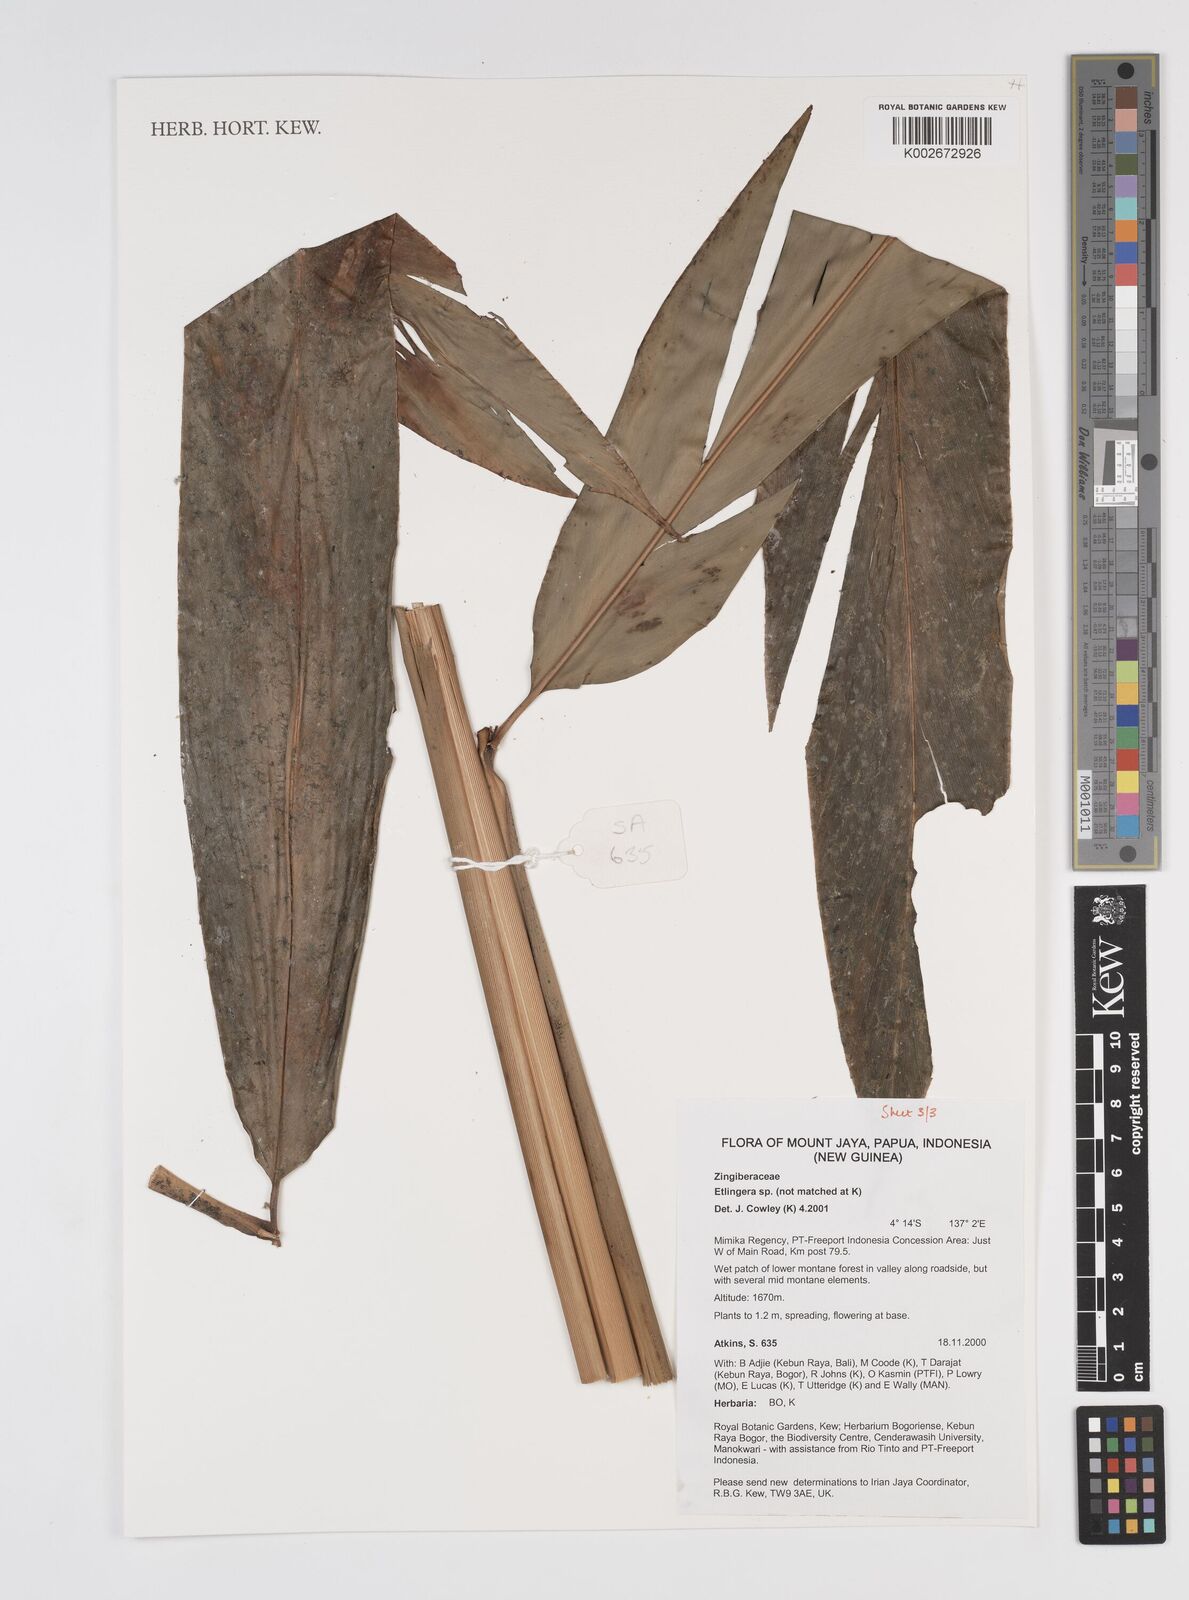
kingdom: Plantae
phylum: Tracheophyta
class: Liliopsida
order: Zingiberales
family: Zingiberaceae
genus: Etlingera
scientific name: Etlingera
